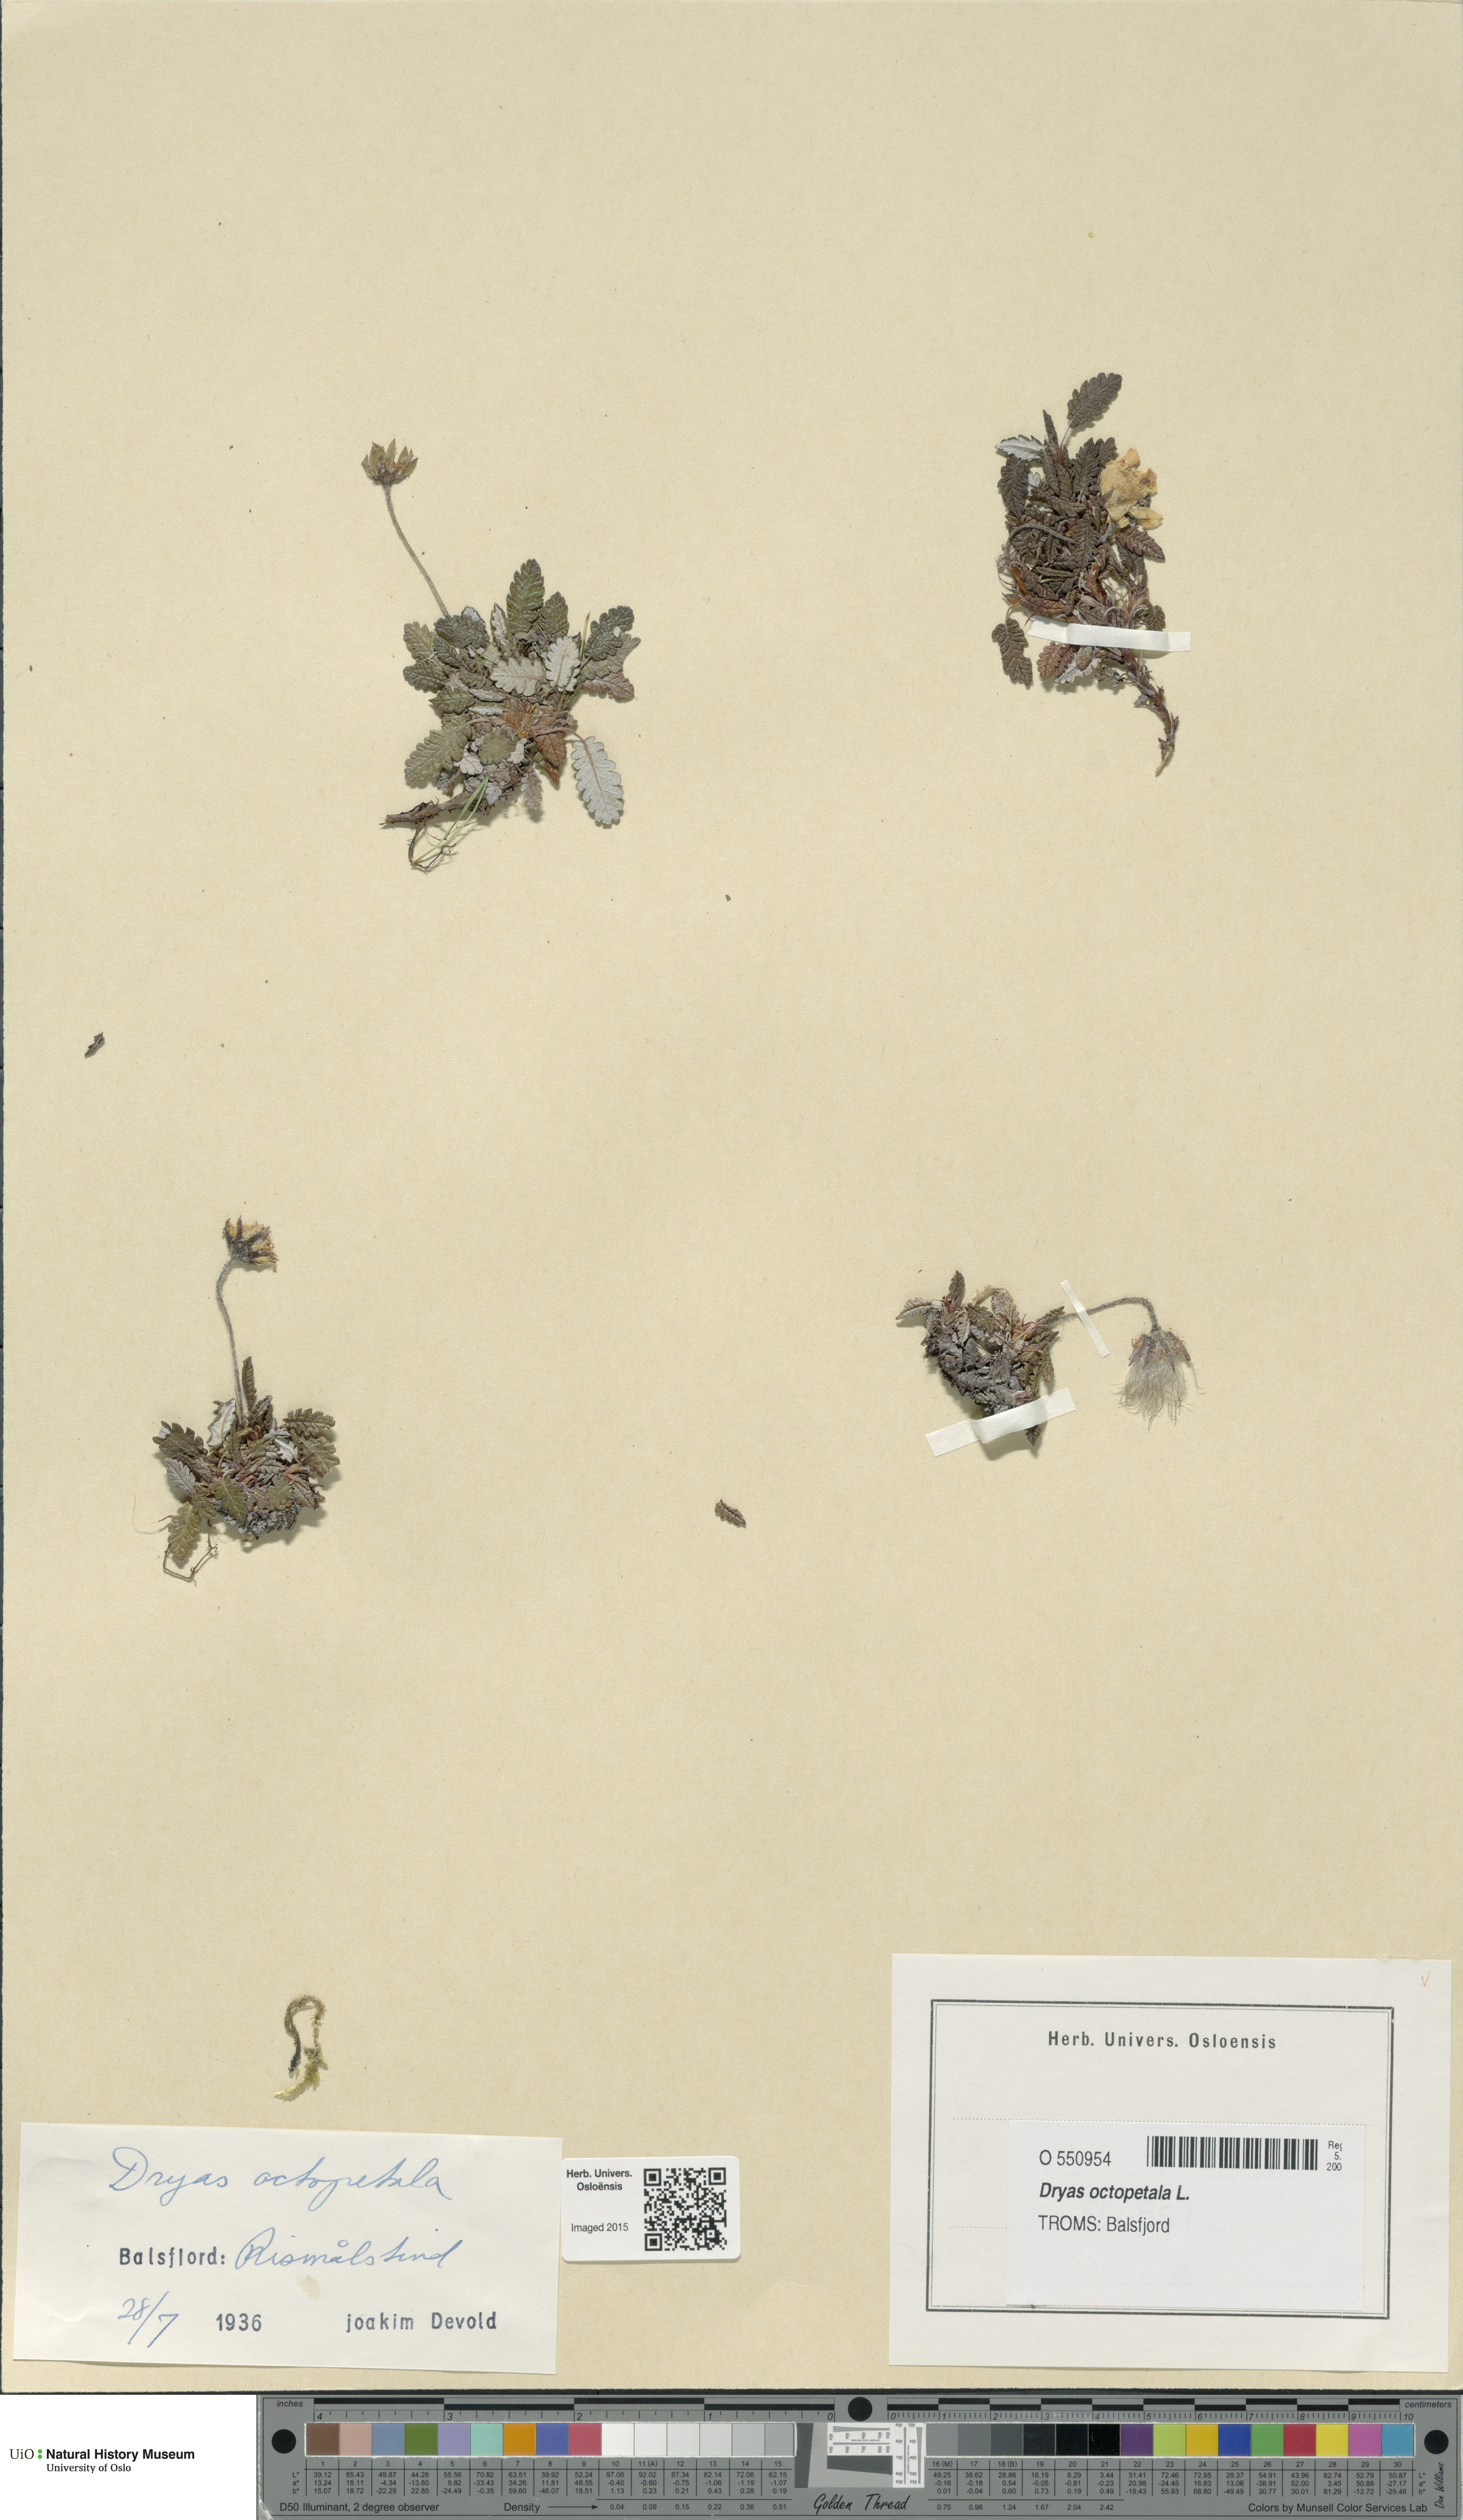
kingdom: Plantae
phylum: Tracheophyta
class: Magnoliopsida
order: Rosales
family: Rosaceae
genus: Dryas
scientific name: Dryas octopetala
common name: Eight-petal mountain-avens
